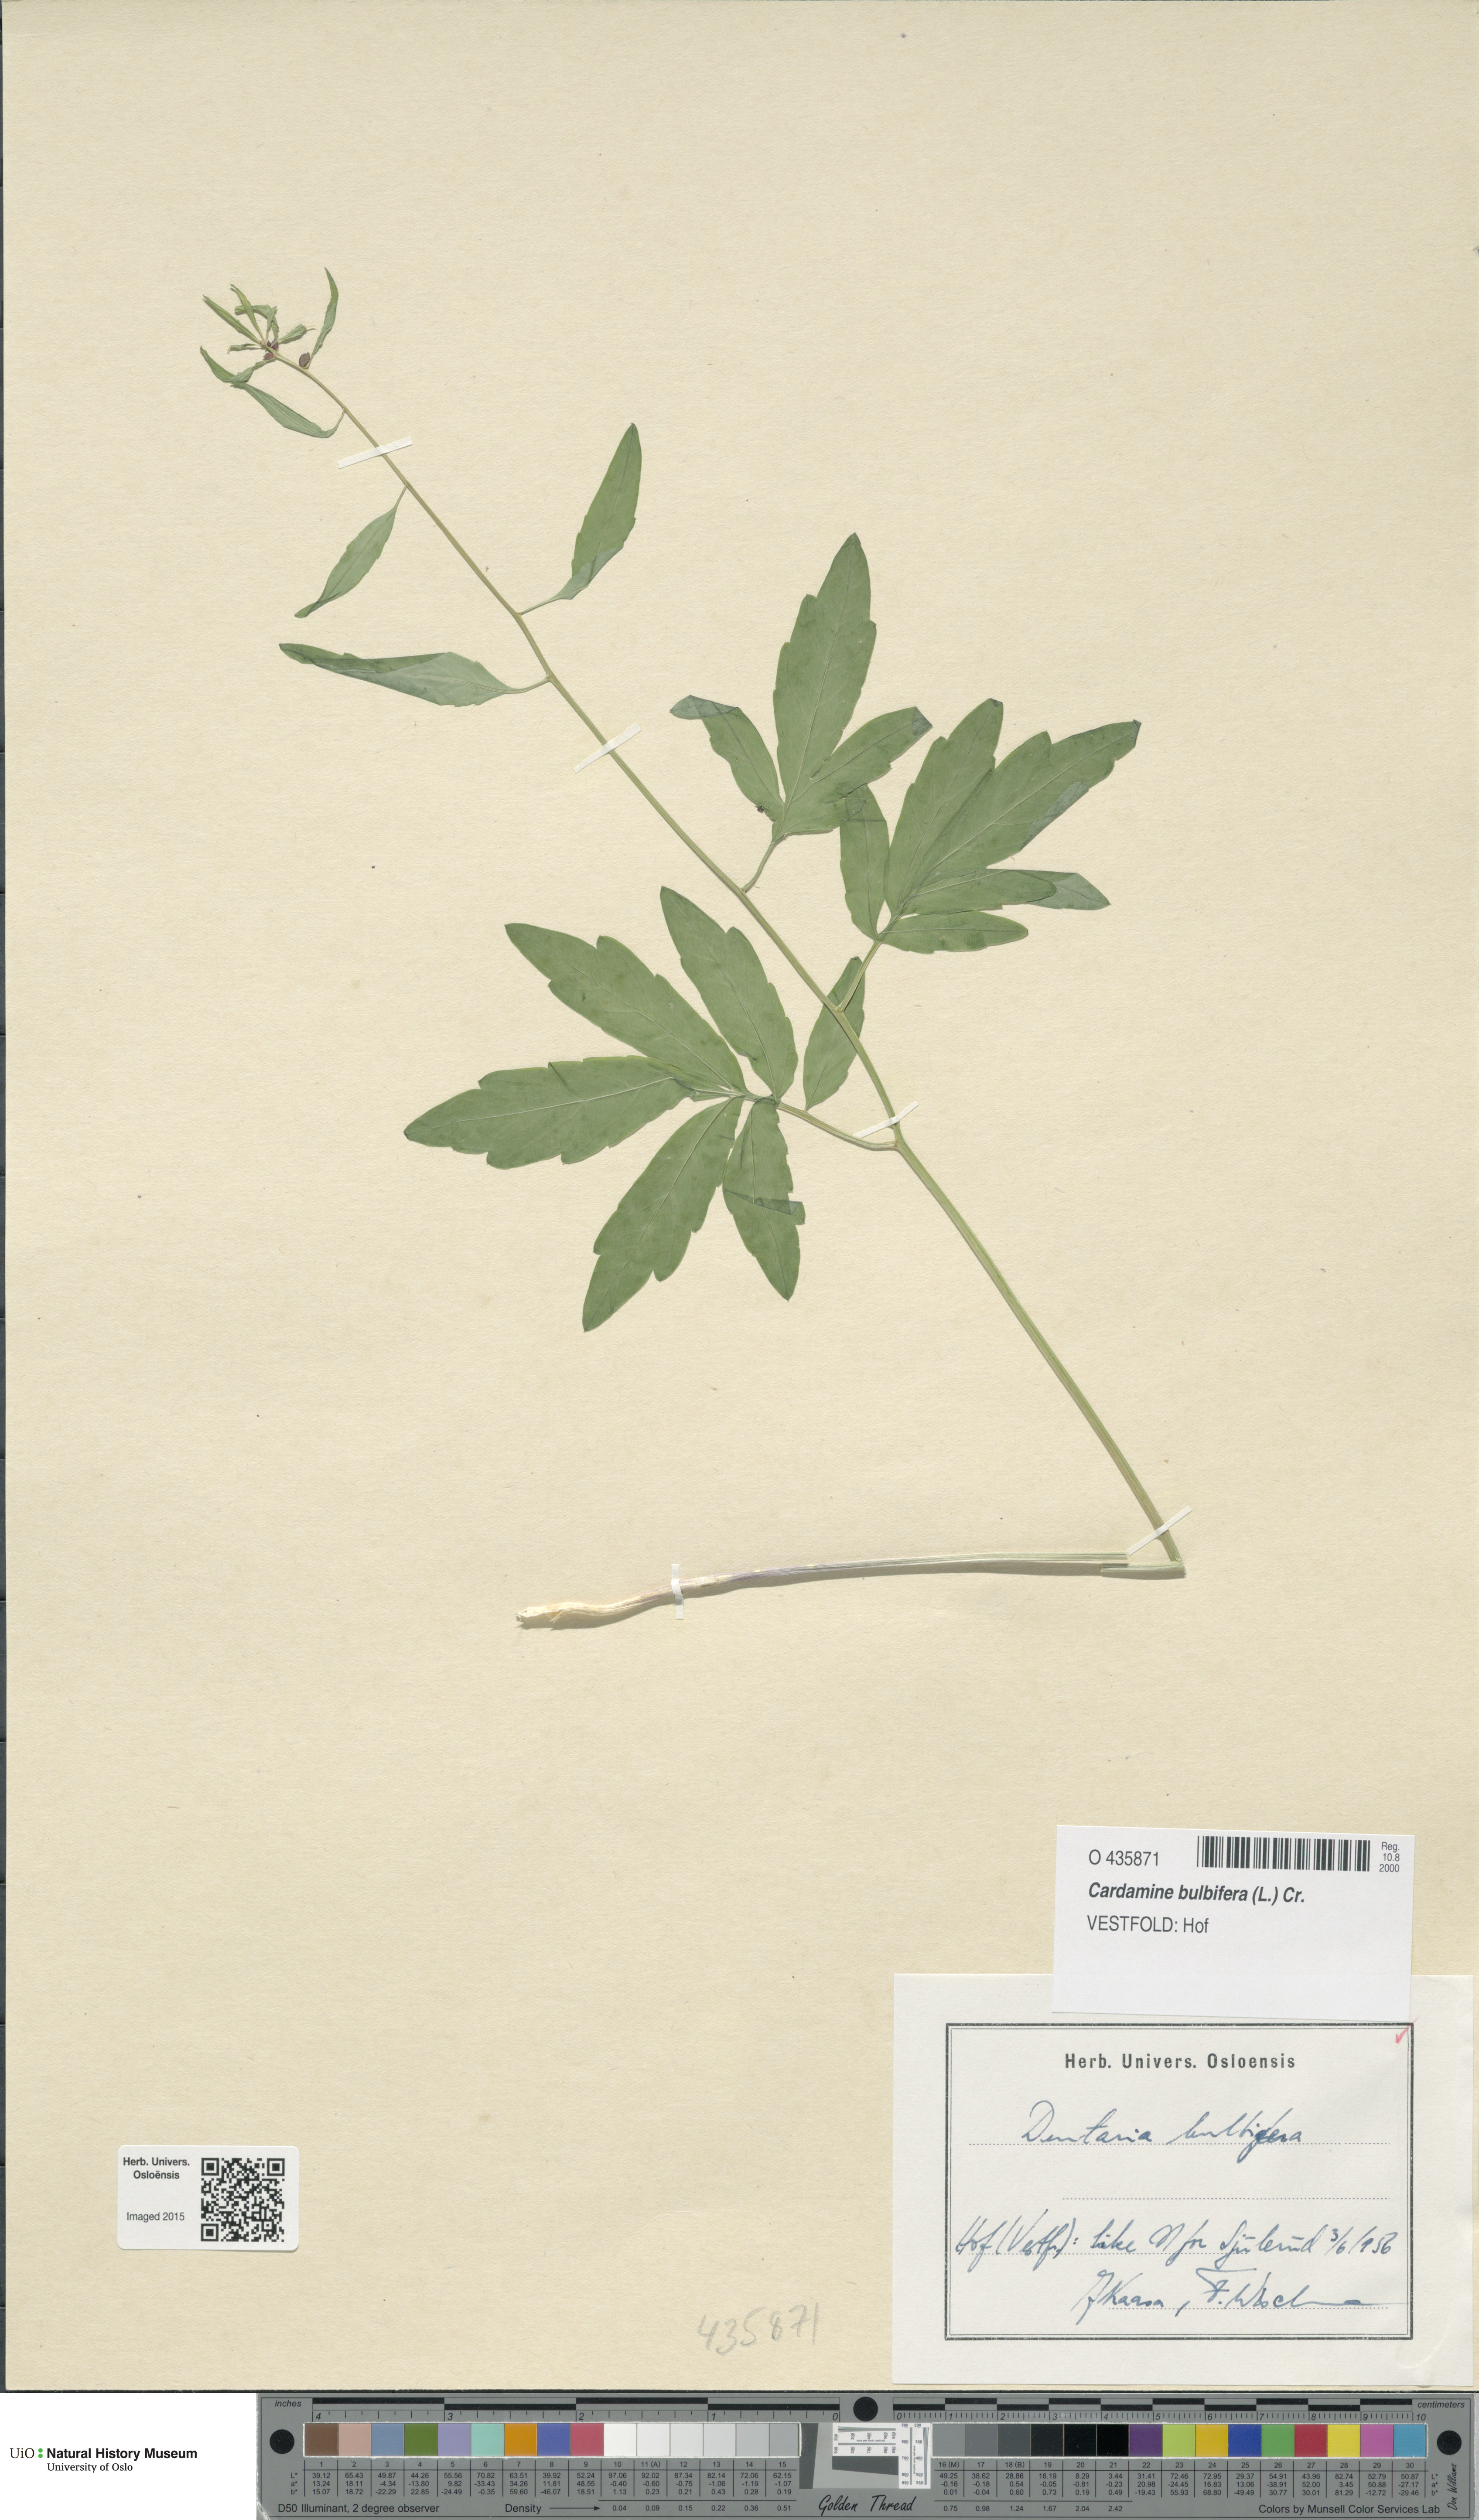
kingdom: Plantae
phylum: Tracheophyta
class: Magnoliopsida
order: Brassicales
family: Brassicaceae
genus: Cardamine
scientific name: Cardamine bulbifera
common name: Coralroot bittercress
